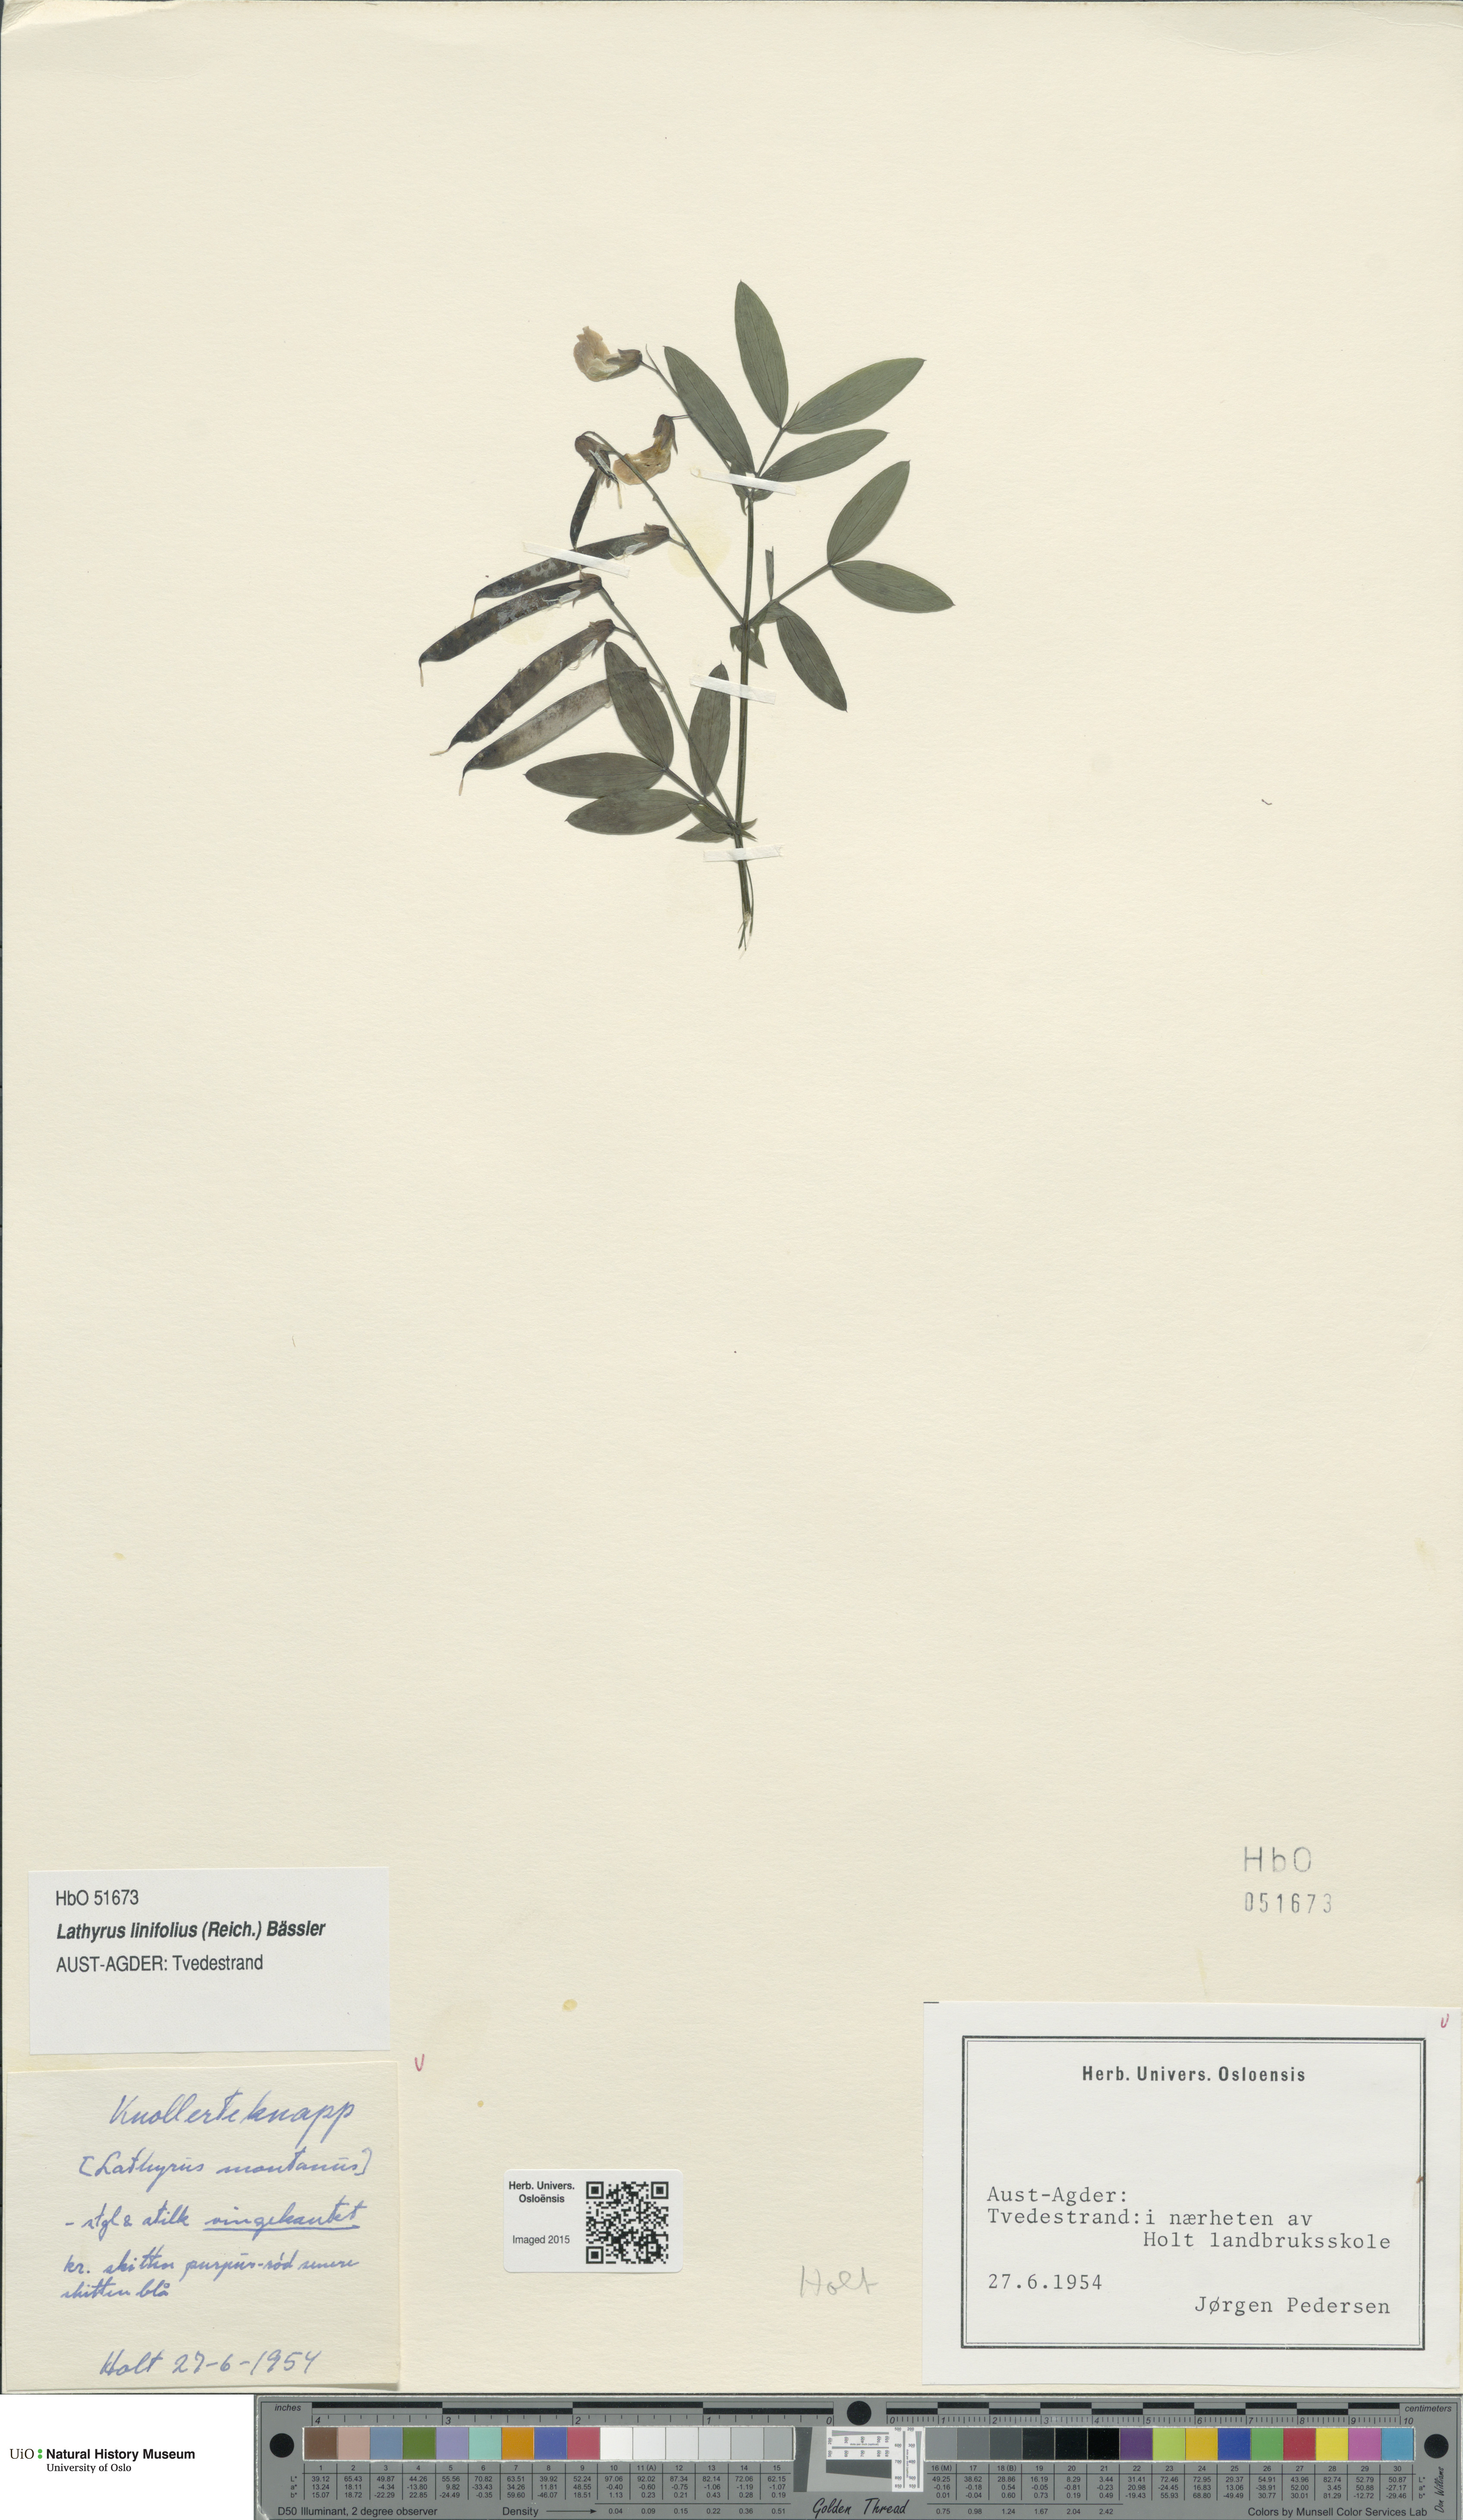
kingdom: Plantae
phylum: Tracheophyta
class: Magnoliopsida
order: Fabales
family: Fabaceae
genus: Lathyrus
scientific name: Lathyrus linifolius
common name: Bitter-vetch
